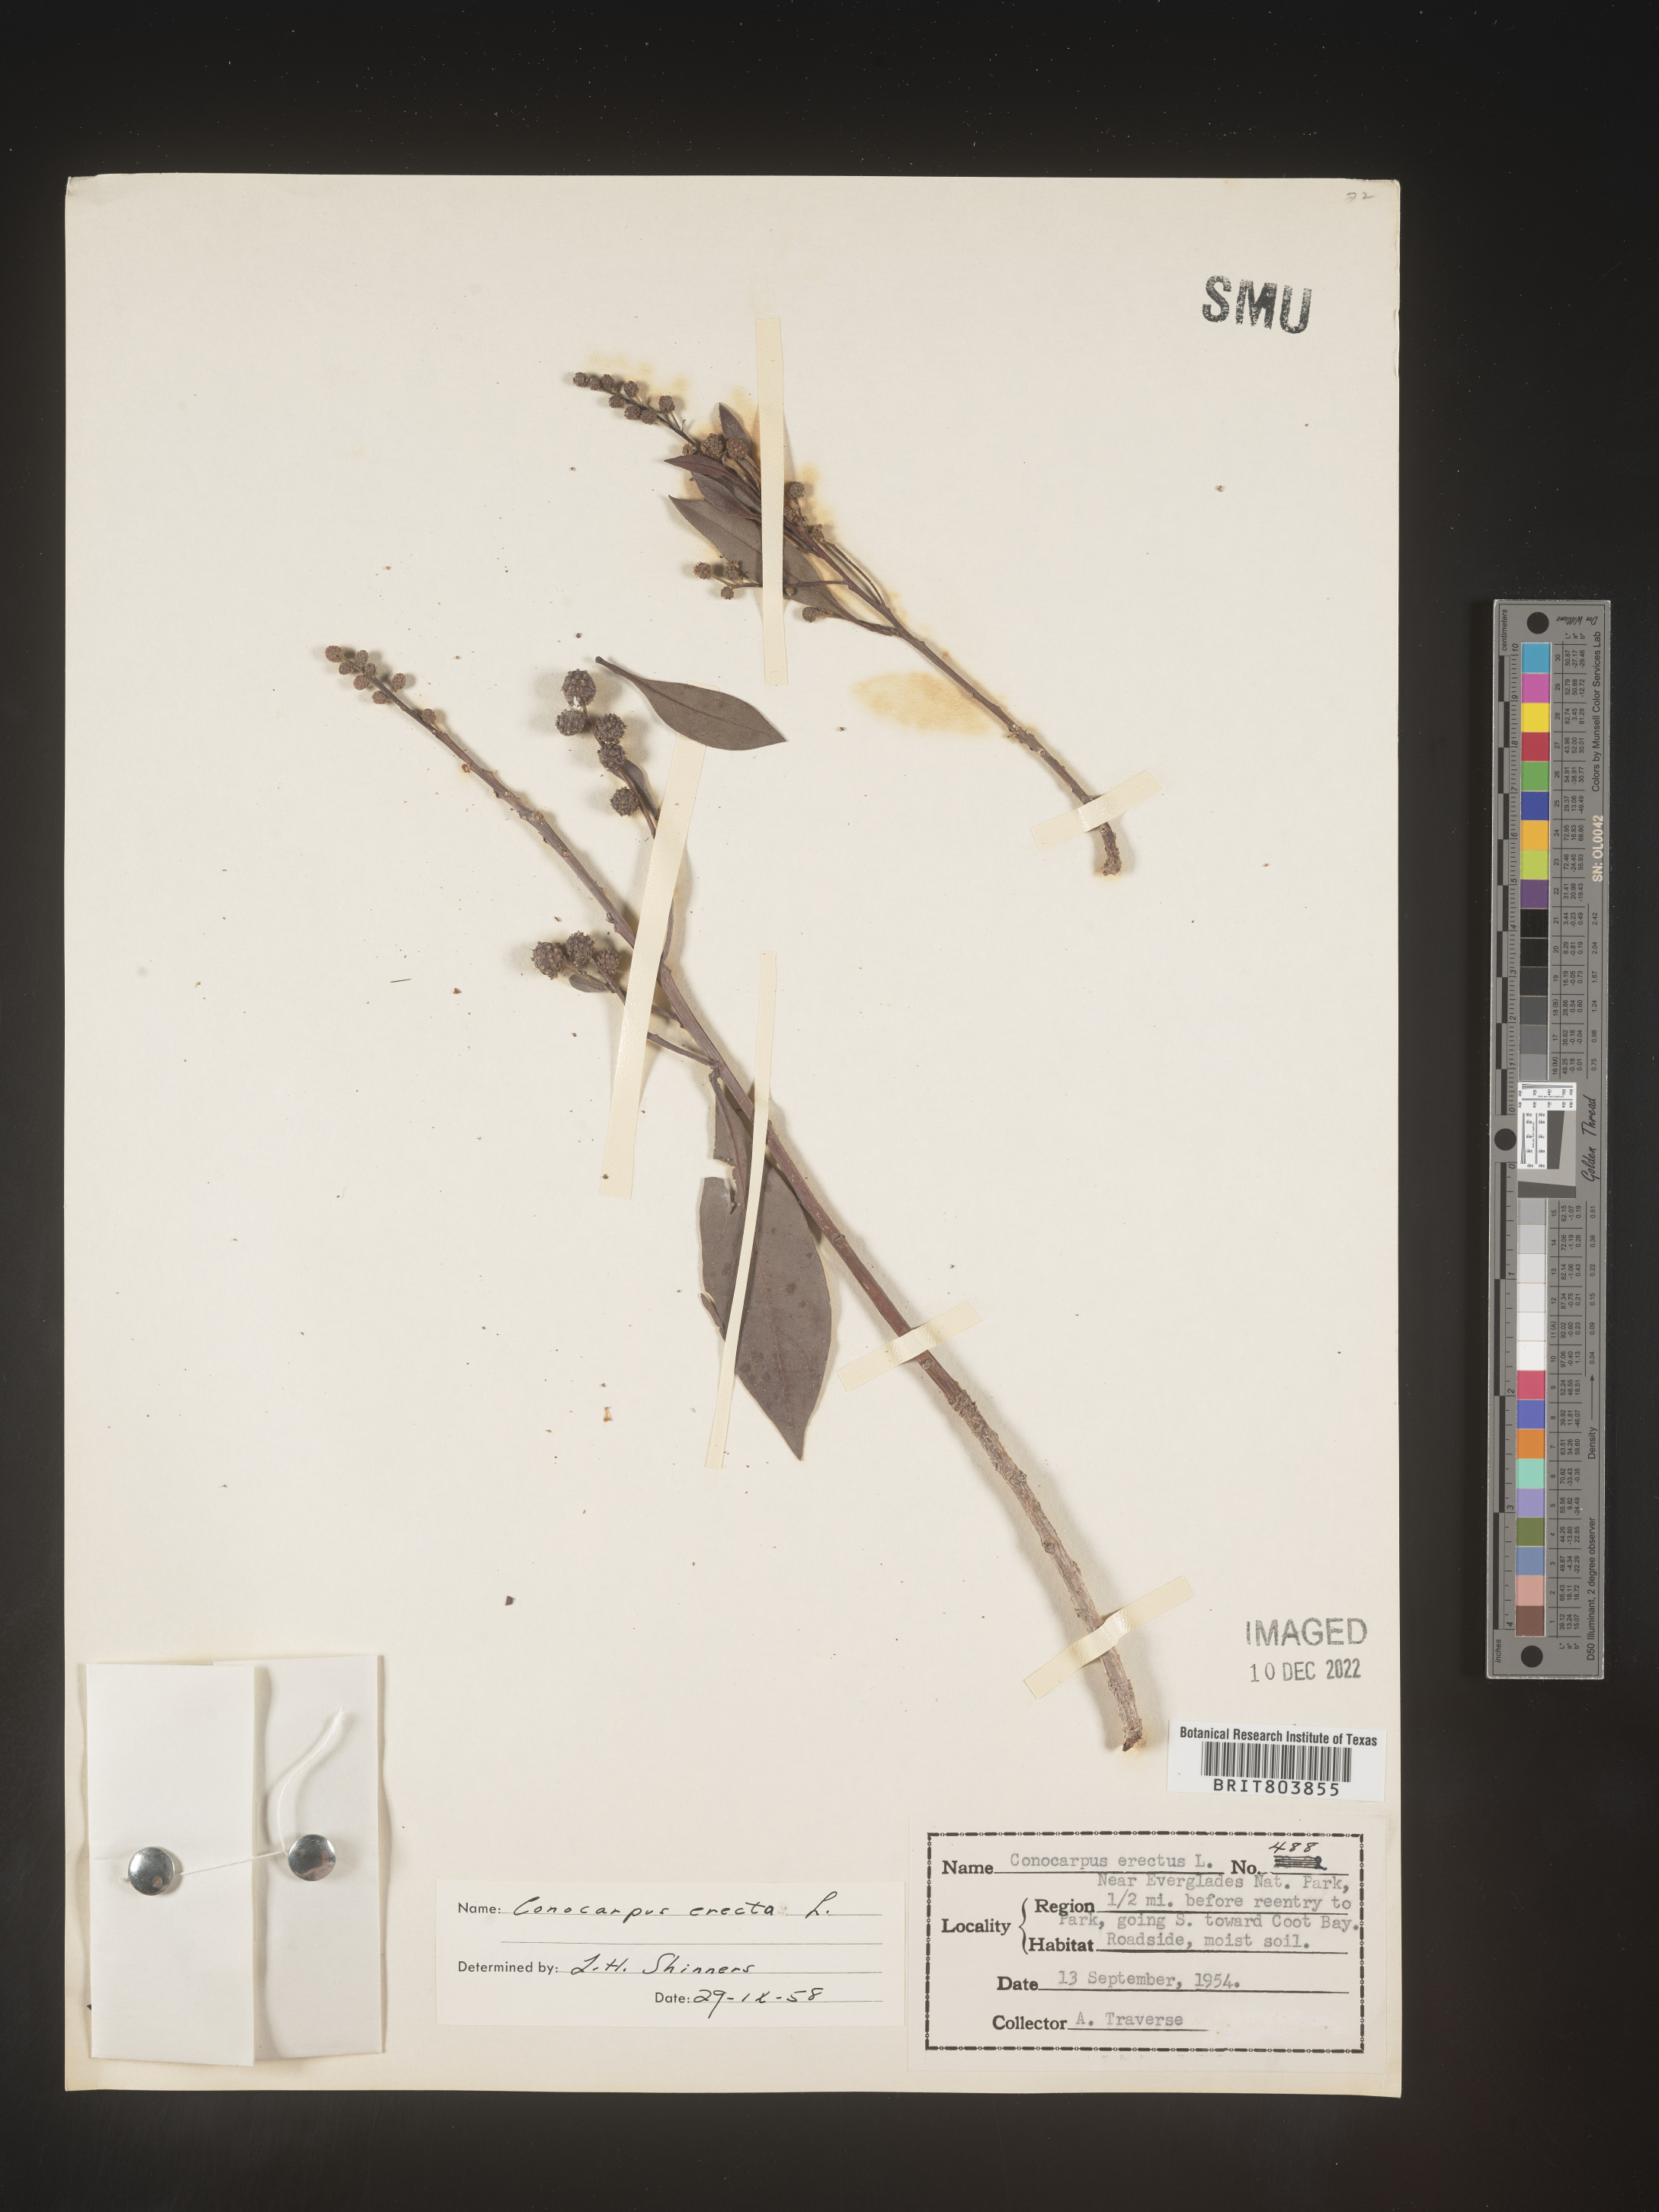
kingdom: Plantae
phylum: Tracheophyta
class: Magnoliopsida
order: Myrtales
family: Combretaceae
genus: Conocarpus
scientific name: Conocarpus erectus
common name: Button mangrove
